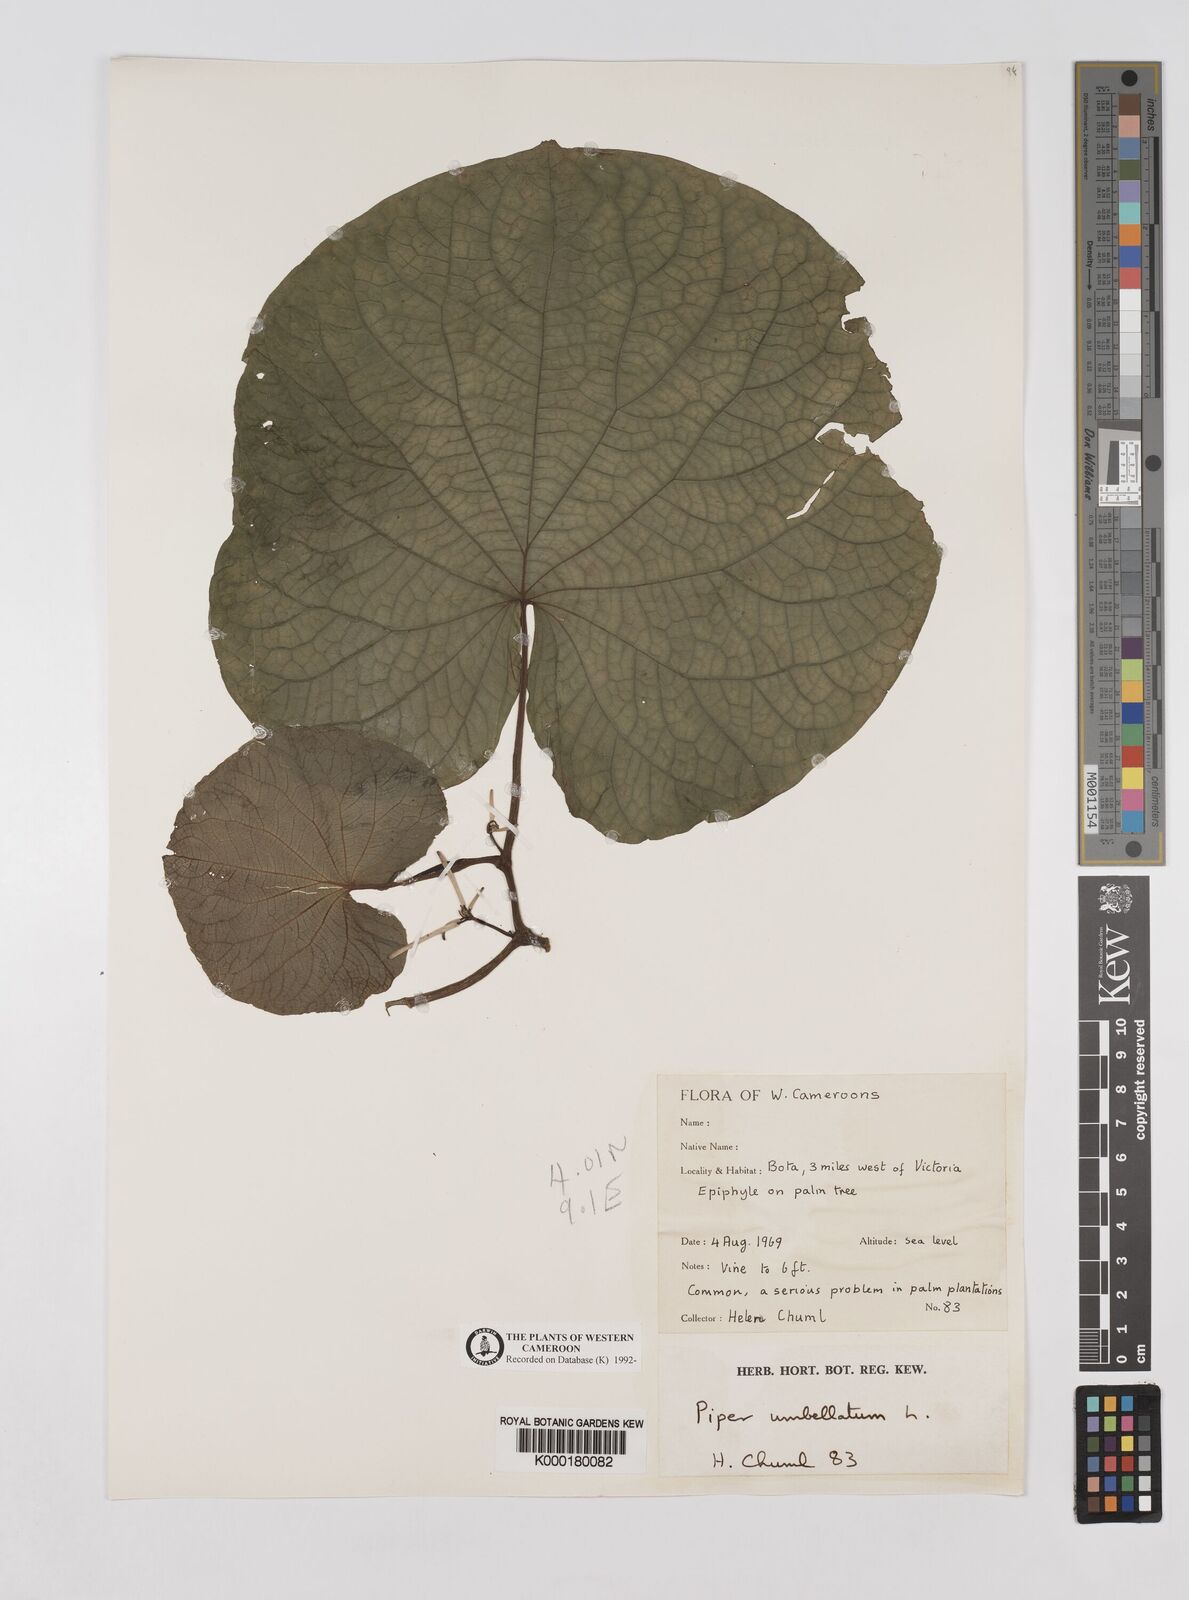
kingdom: Plantae
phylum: Tracheophyta
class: Magnoliopsida
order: Piperales
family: Piperaceae
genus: Piper
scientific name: Piper umbellatum
